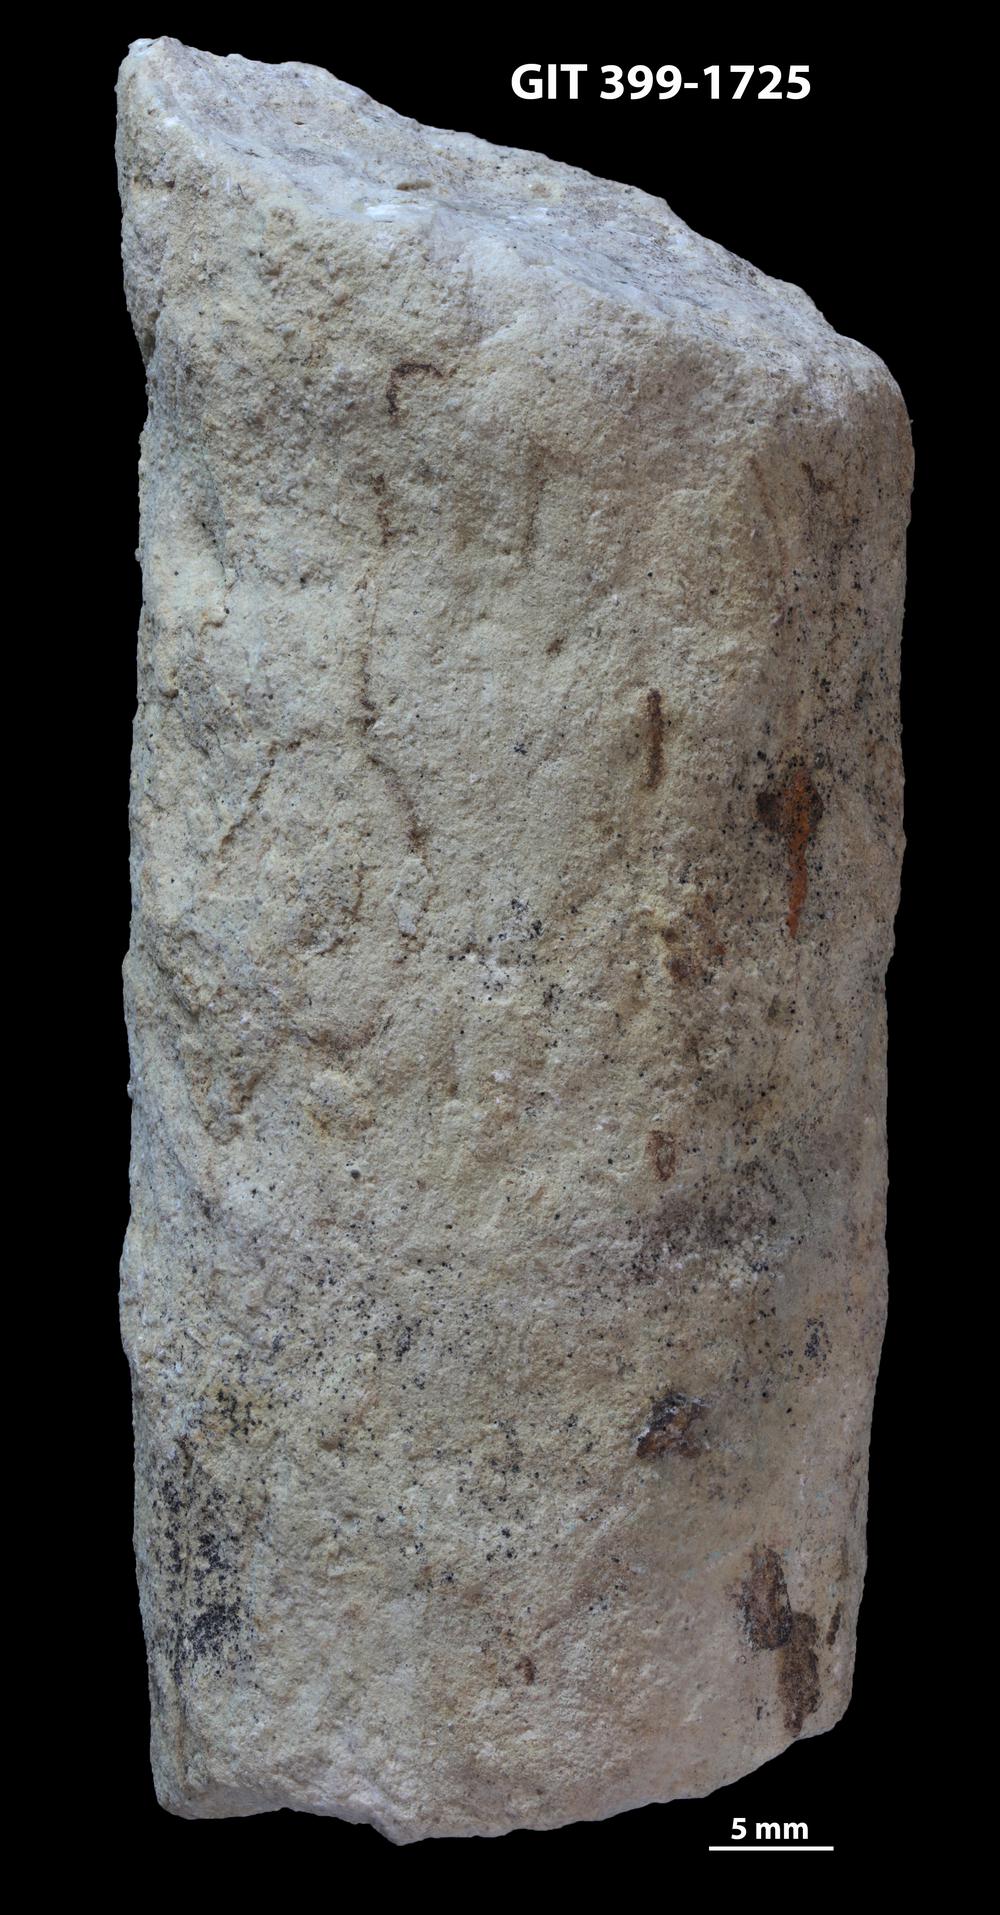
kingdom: Animalia
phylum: Mollusca
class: Cephalopoda
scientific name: Cephalopoda
